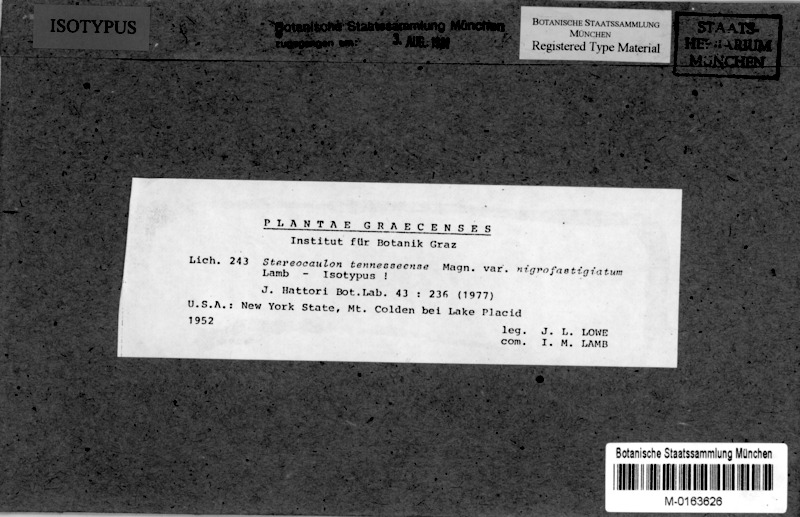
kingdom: Fungi
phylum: Ascomycota
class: Lecanoromycetes
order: Lecanorales
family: Stereocaulaceae
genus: Stereocaulon
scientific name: Stereocaulon tennesseense
